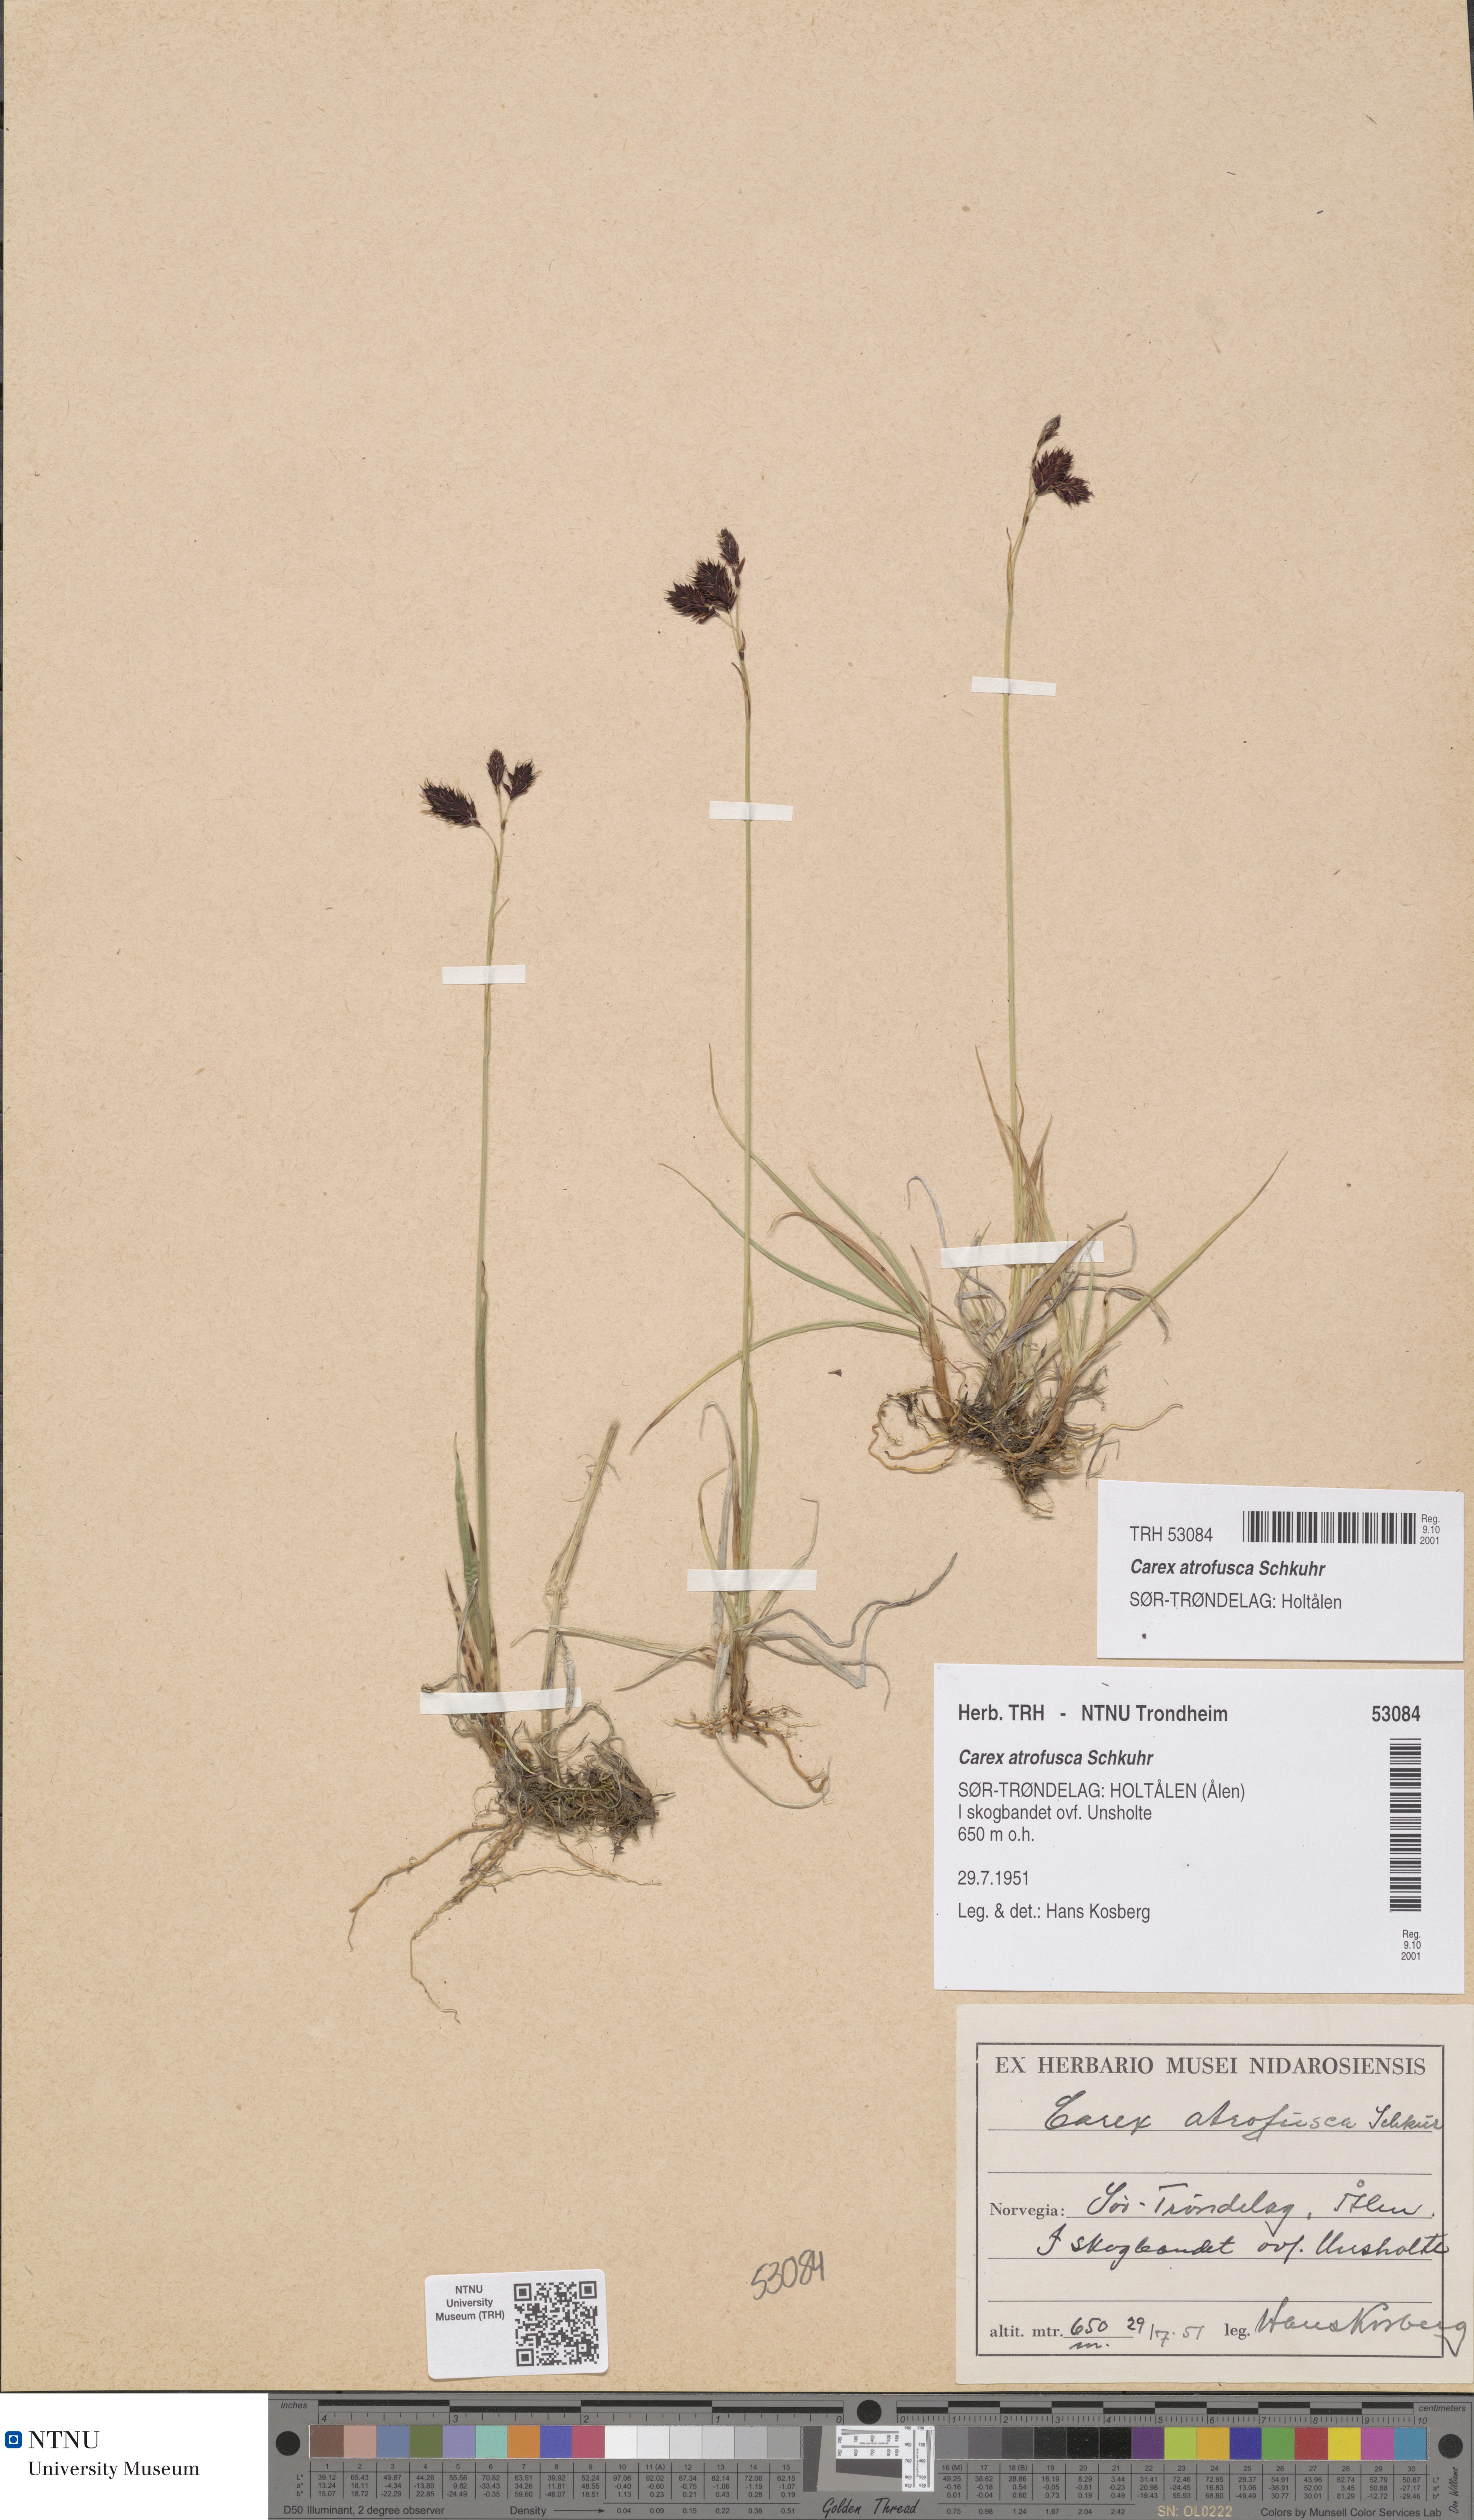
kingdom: Plantae
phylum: Tracheophyta
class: Liliopsida
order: Poales
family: Cyperaceae
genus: Carex
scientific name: Carex atrofusca
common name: Scorched alpine-sedge
